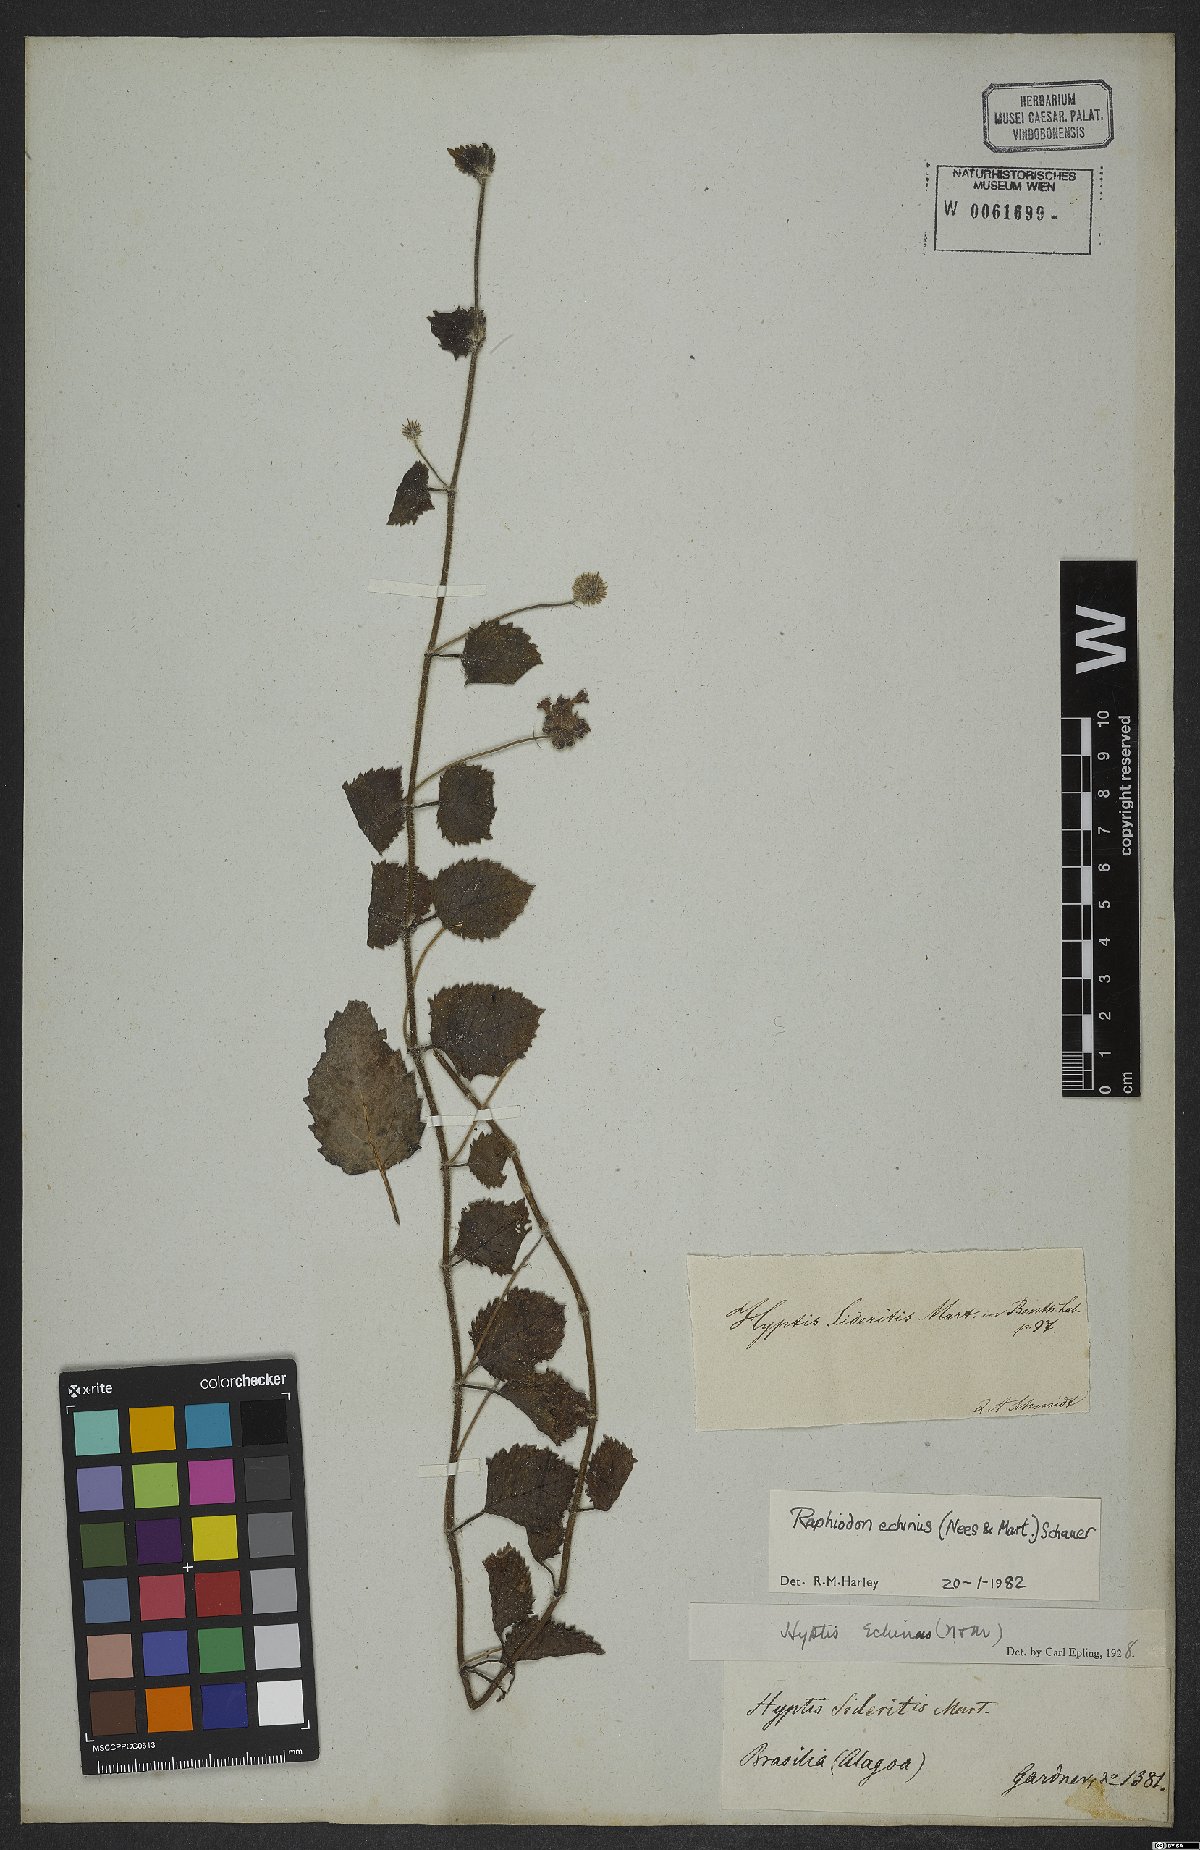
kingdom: Plantae
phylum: Tracheophyta
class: Magnoliopsida
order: Lamiales
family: Lamiaceae
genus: Rhaphiodon
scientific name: Rhaphiodon echinus
